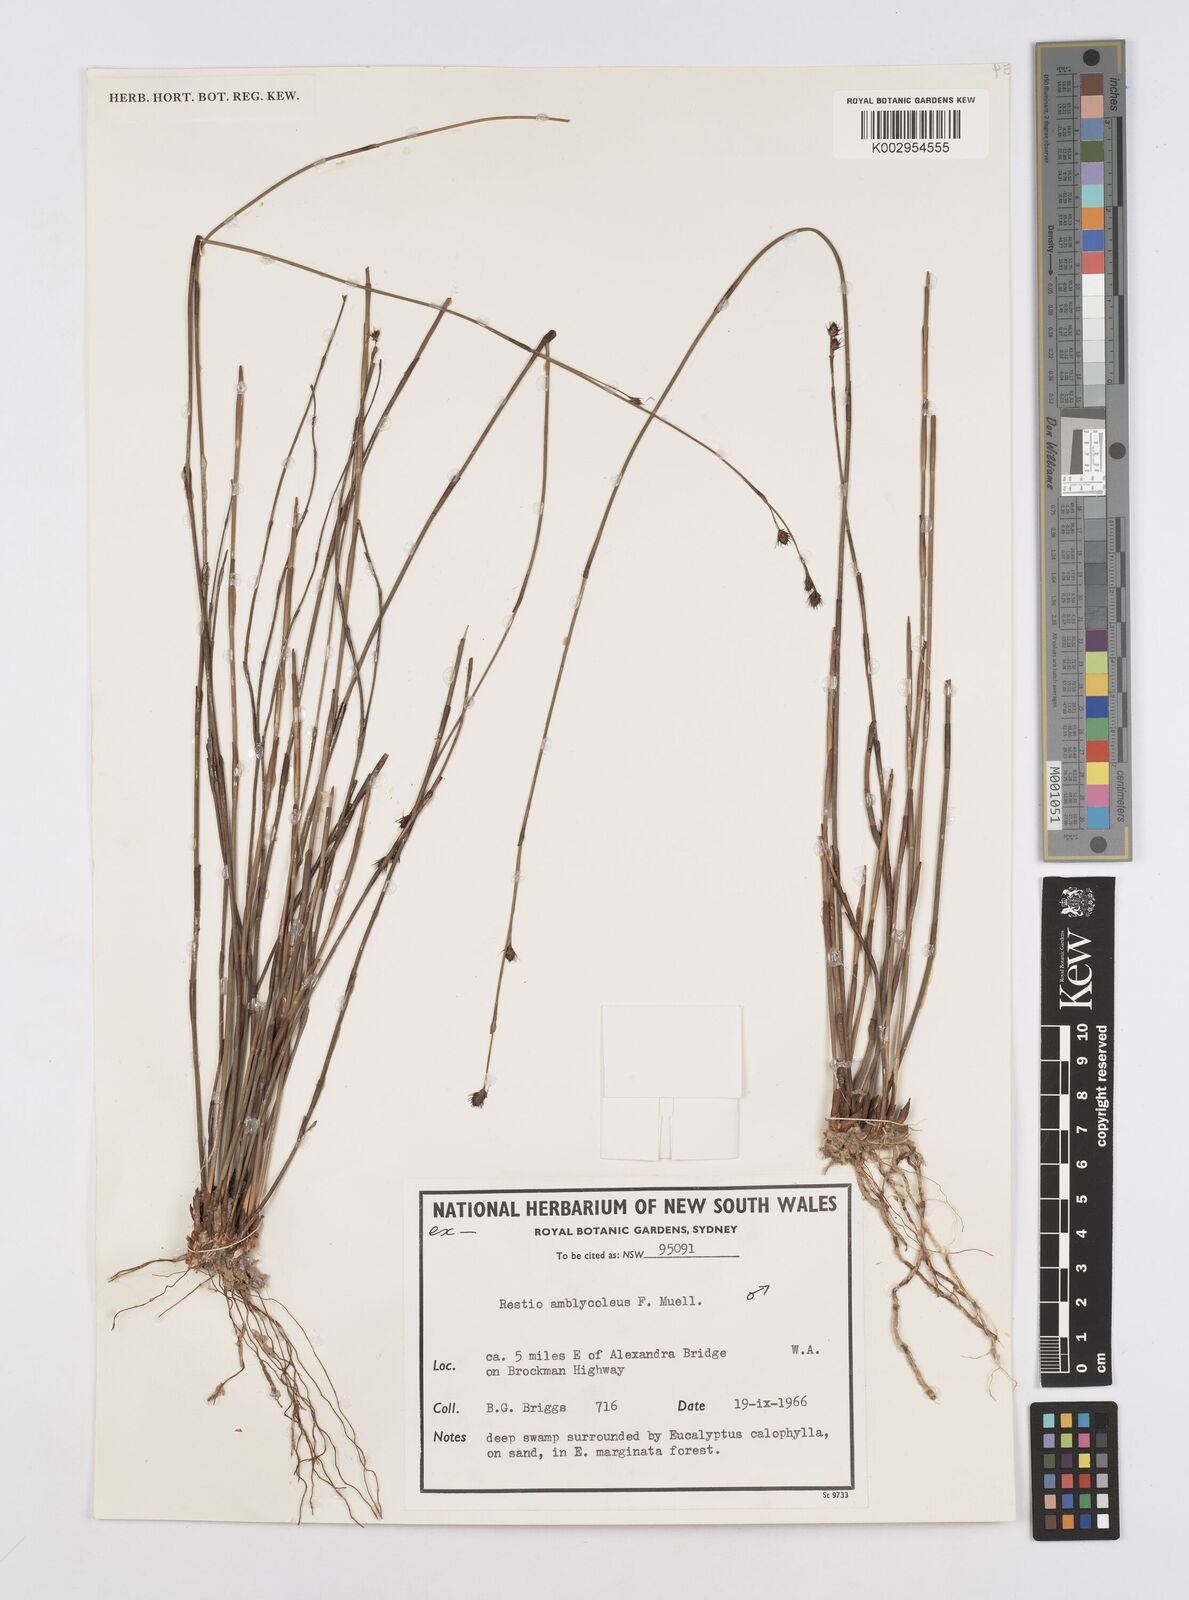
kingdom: Plantae
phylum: Tracheophyta
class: Liliopsida
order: Poales
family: Restionaceae
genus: Chordifex
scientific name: Chordifex amblycoleus
